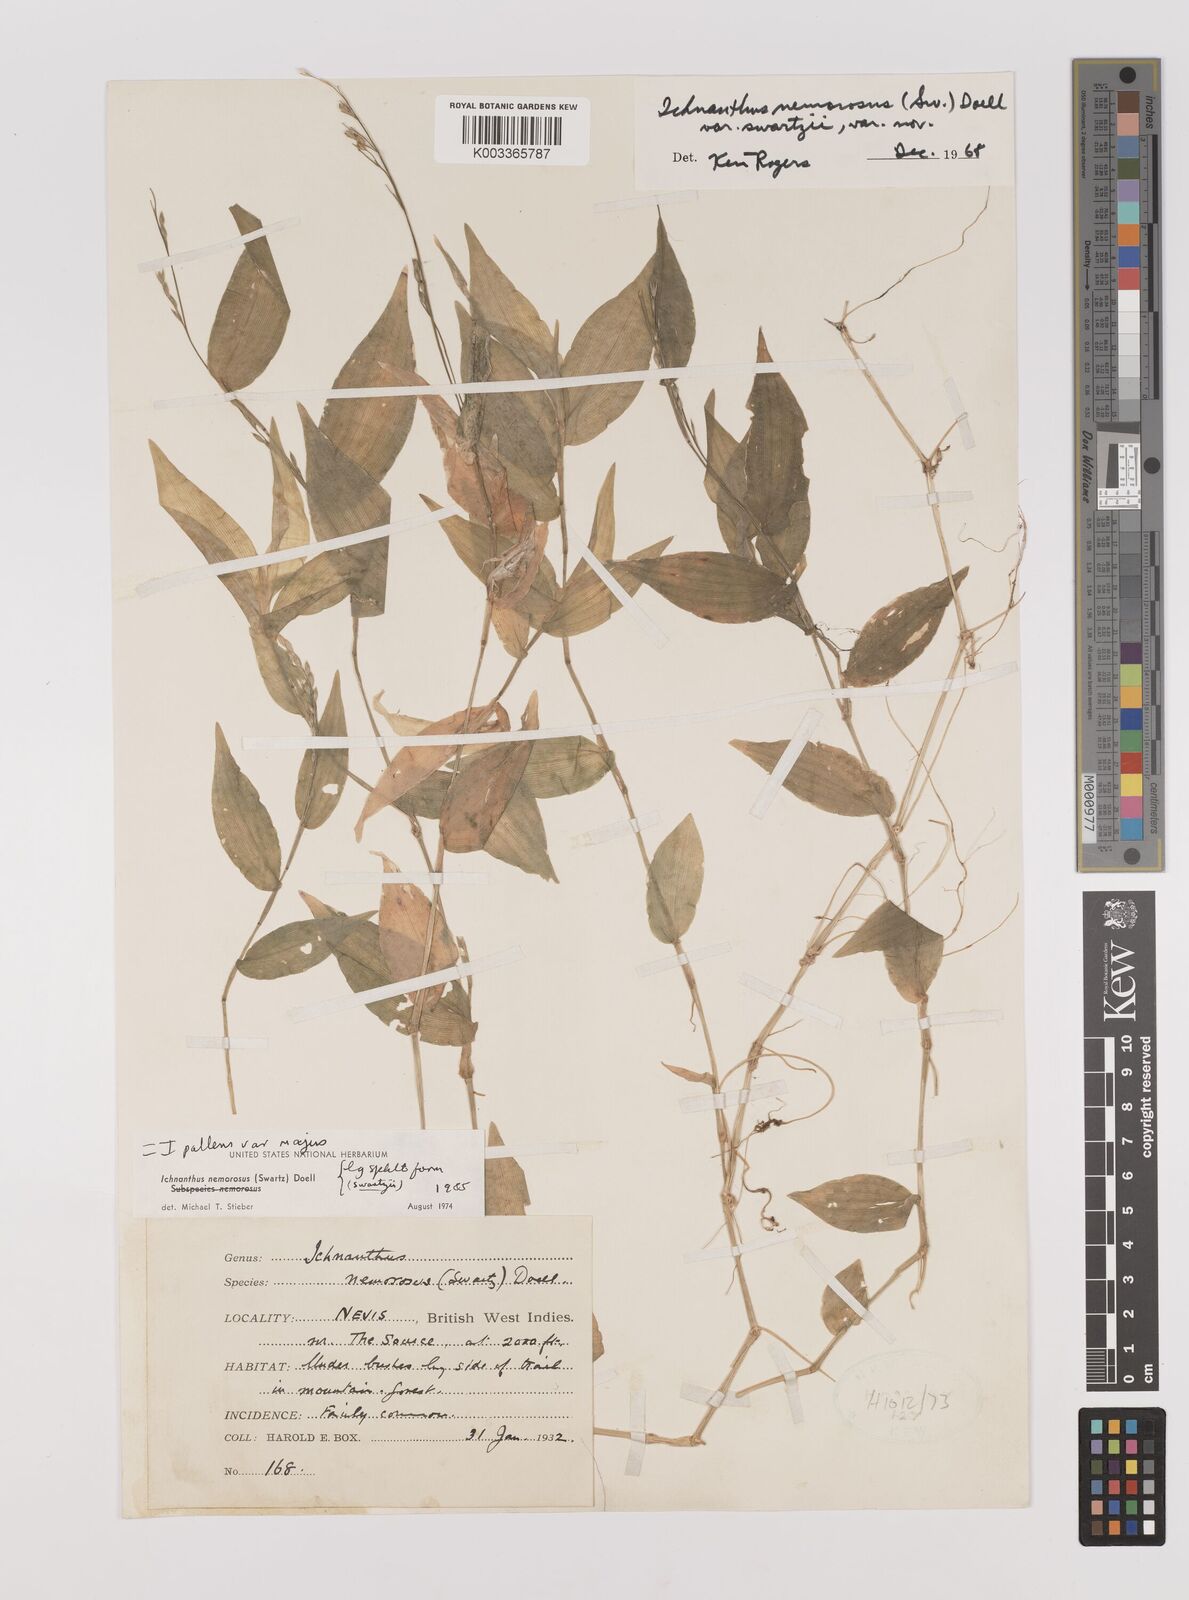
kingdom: Plantae
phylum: Tracheophyta
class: Liliopsida
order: Poales
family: Poaceae
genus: Ichnanthus
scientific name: Ichnanthus pallens
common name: Water grass
